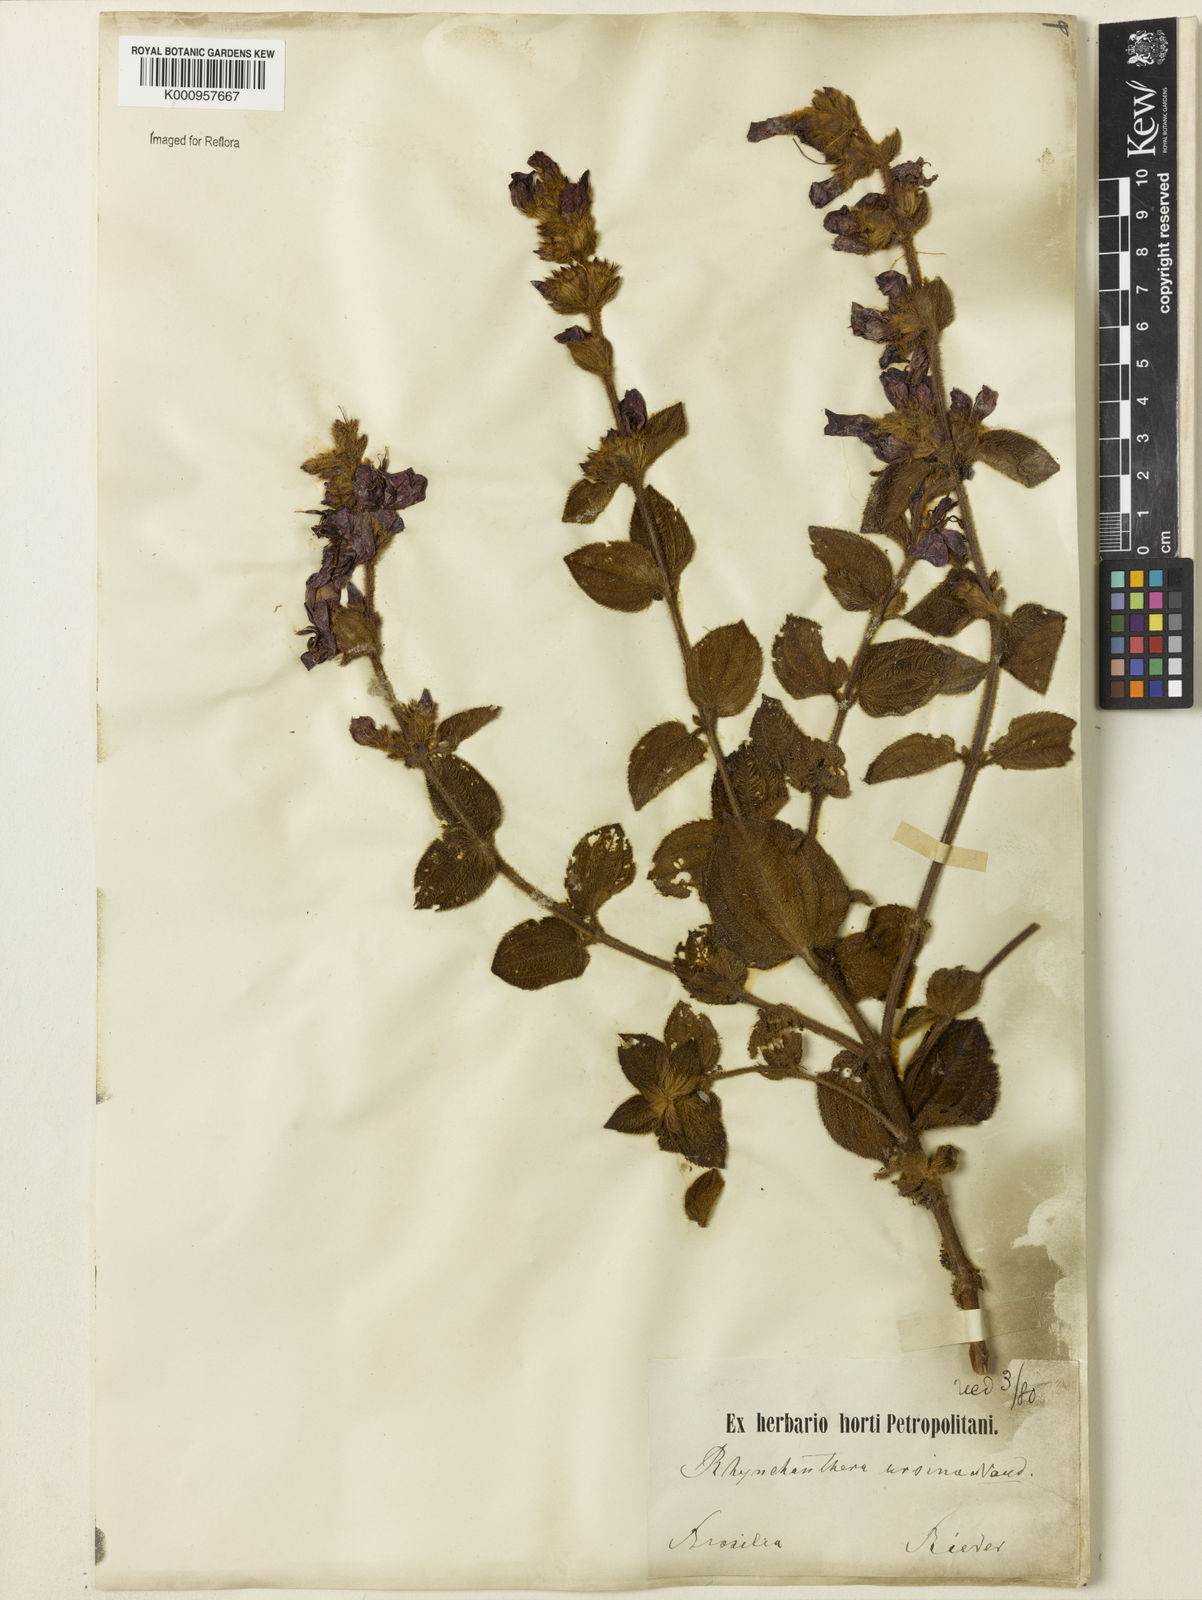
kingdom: Plantae
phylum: Tracheophyta
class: Magnoliopsida
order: Myrtales
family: Melastomataceae
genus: Rhynchanthera
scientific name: Rhynchanthera ursina
